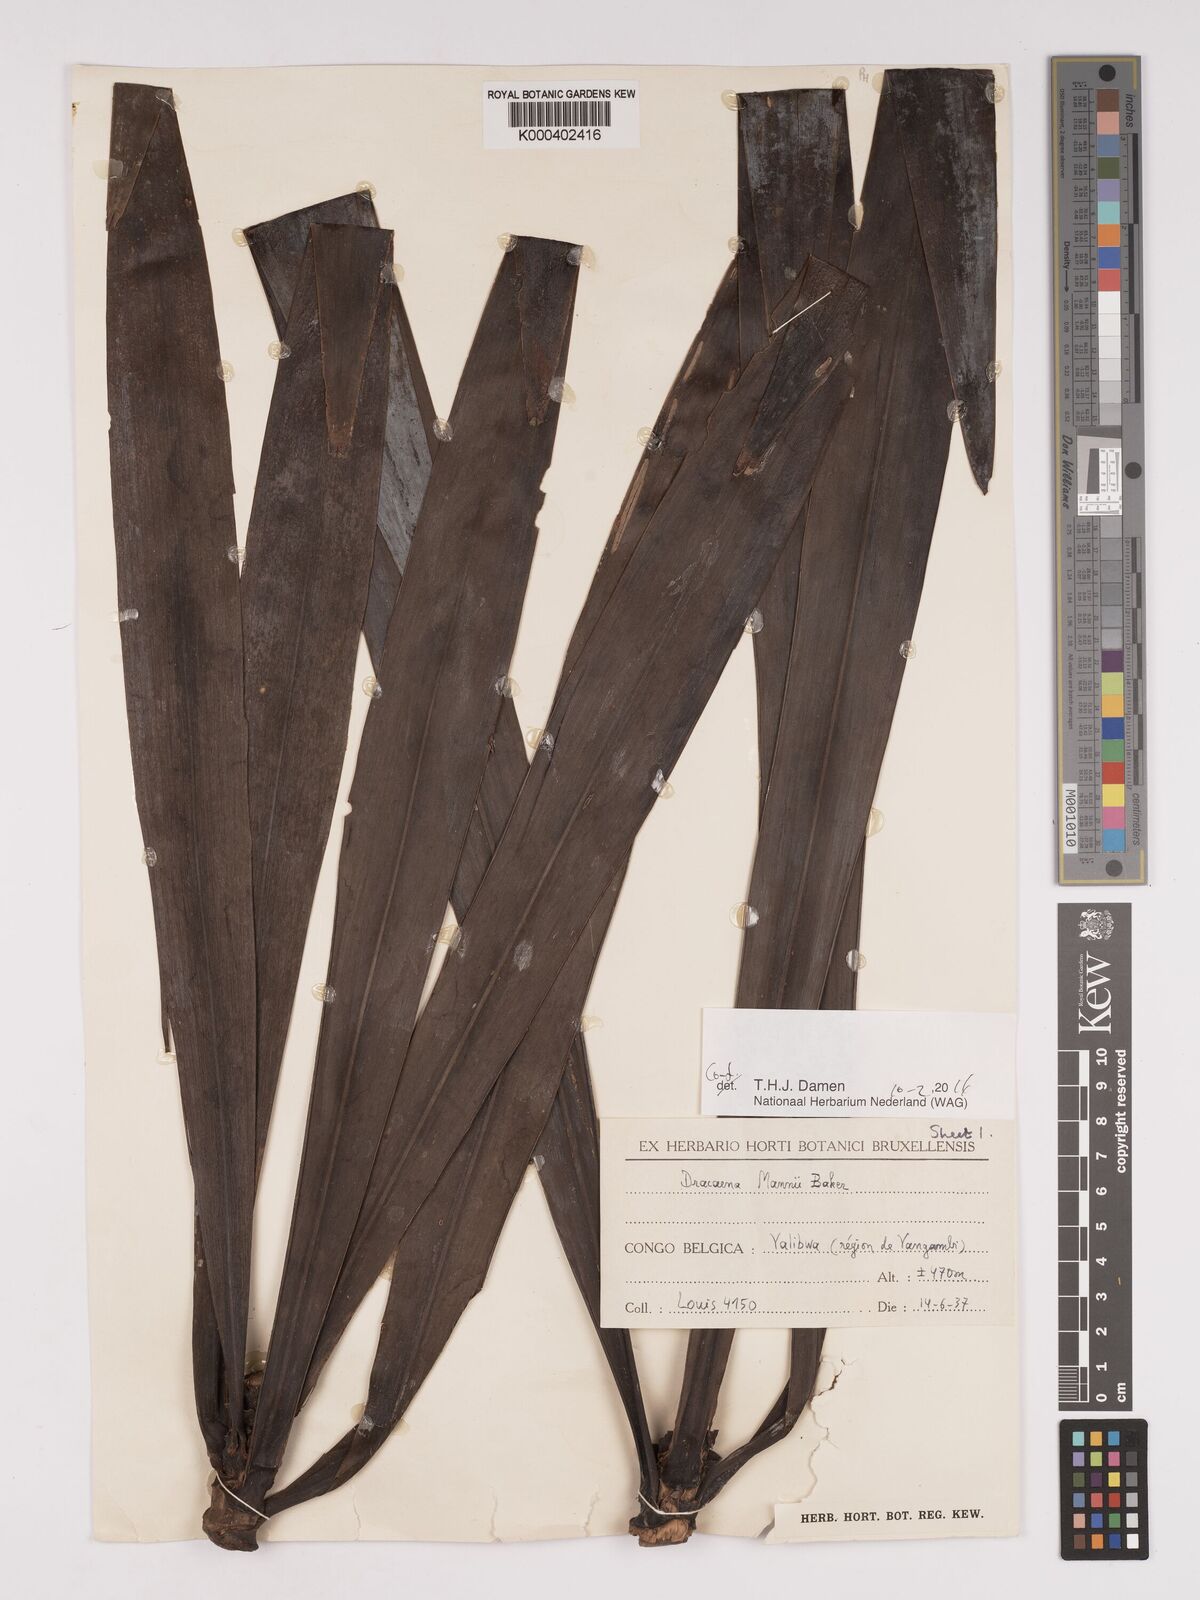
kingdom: Plantae
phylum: Tracheophyta
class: Liliopsida
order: Asparagales
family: Asparagaceae
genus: Dracaena
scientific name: Dracaena mannii
